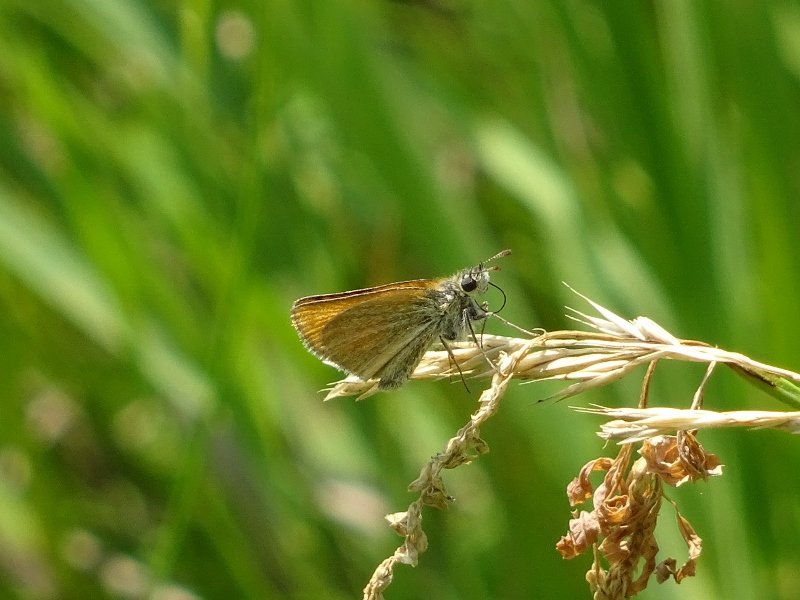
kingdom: Animalia
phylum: Arthropoda
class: Insecta
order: Lepidoptera
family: Hesperiidae
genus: Thymelicus
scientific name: Thymelicus lineola
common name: European Skipper
